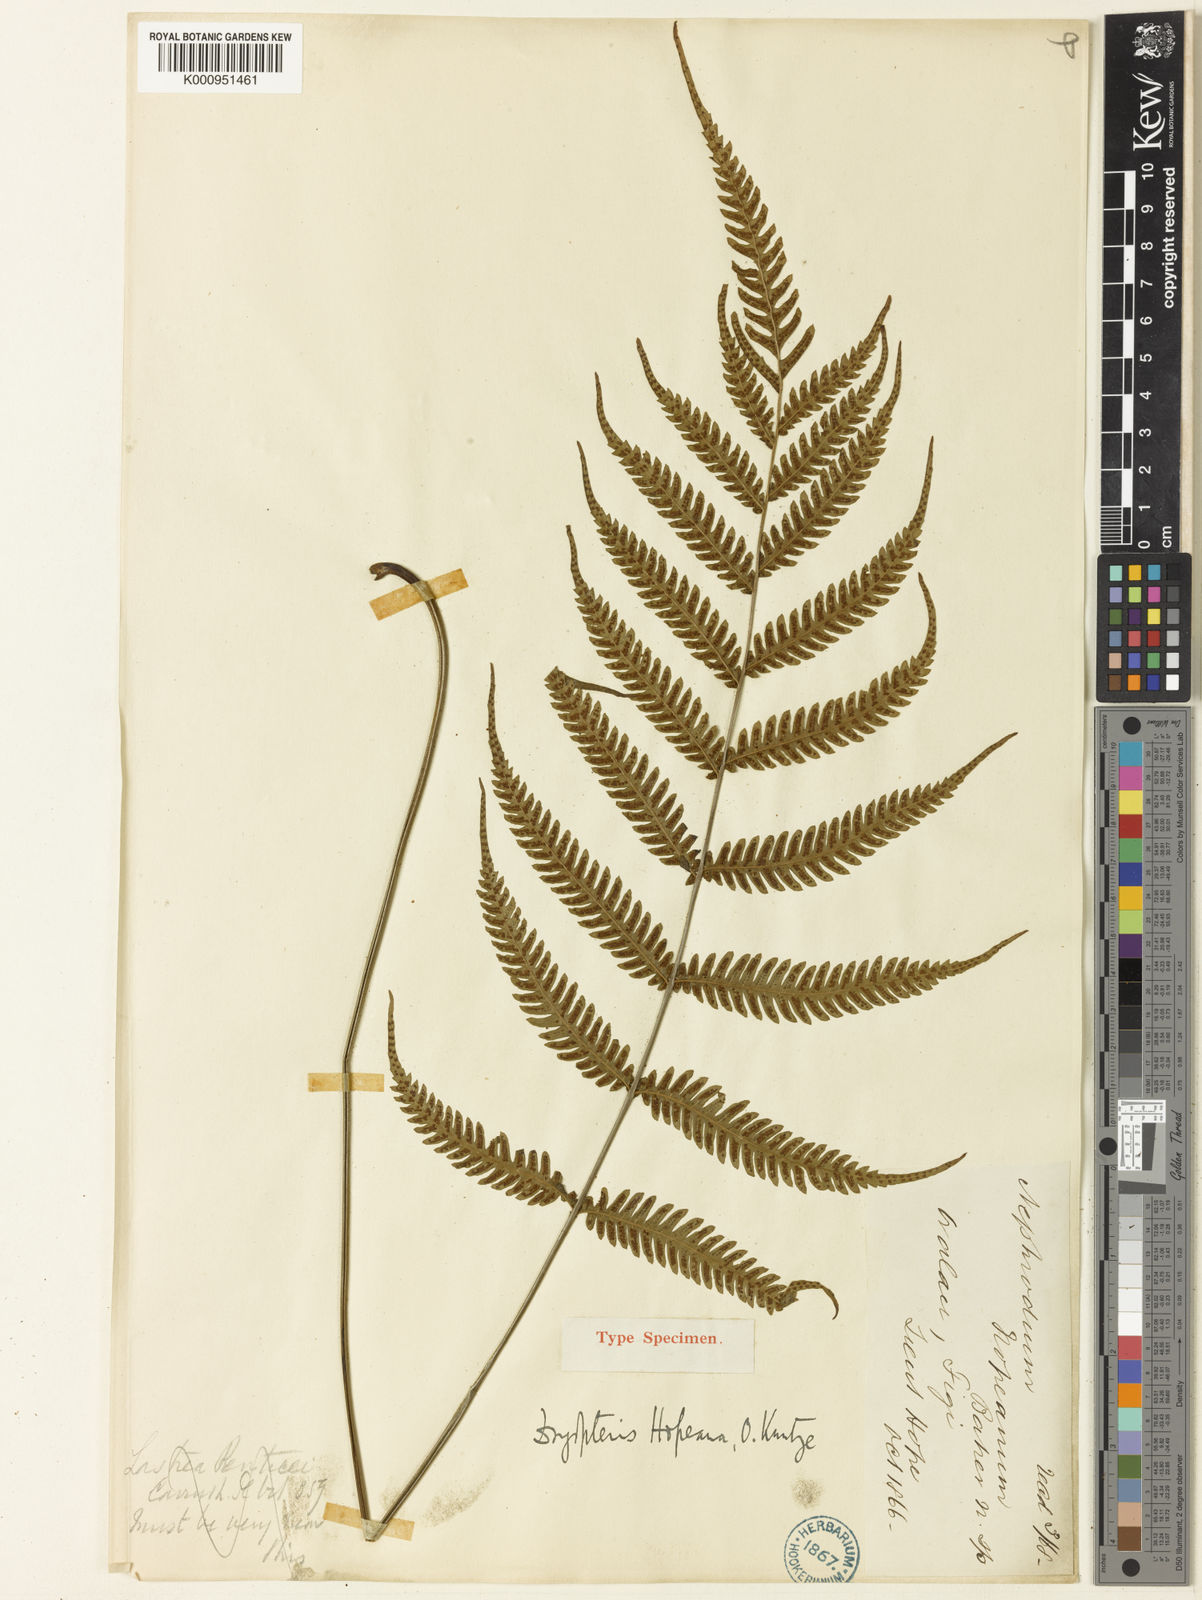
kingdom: Plantae
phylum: Tracheophyta
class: Polypodiopsida
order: Polypodiales
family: Thelypteridaceae
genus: Plesioneuron
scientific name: Plesioneuron hopeanum
